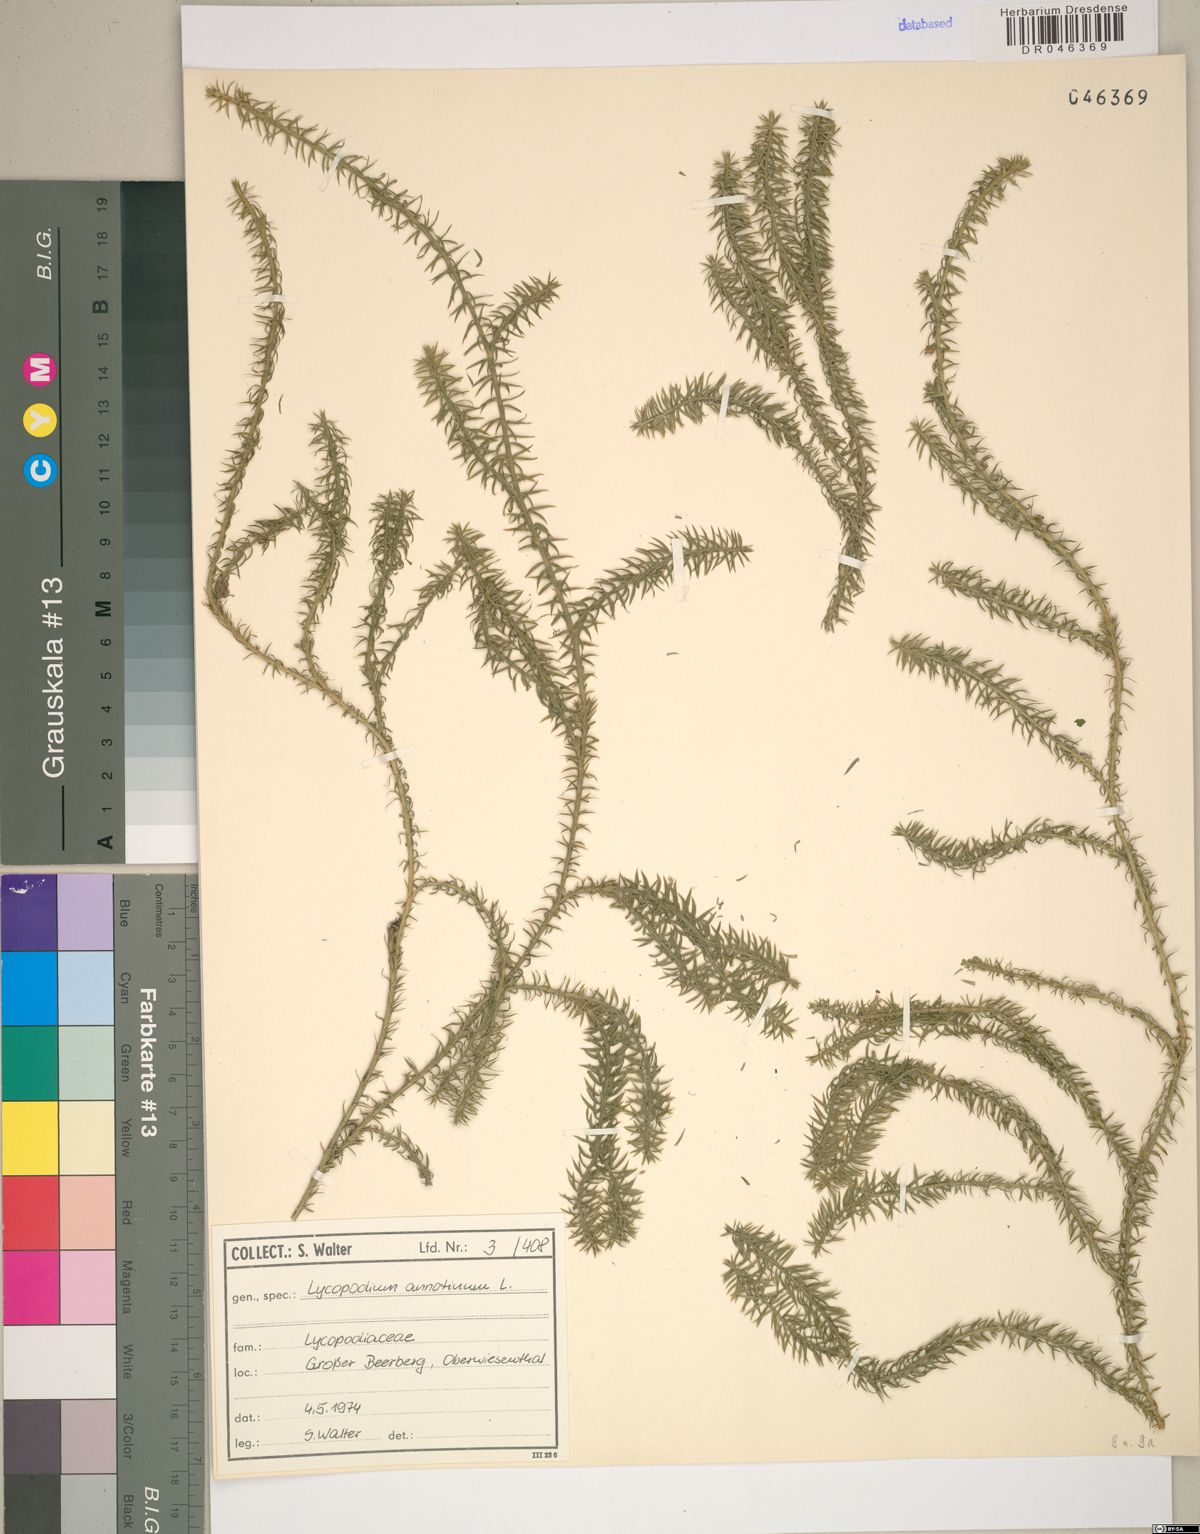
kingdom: Plantae
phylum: Tracheophyta
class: Lycopodiopsida
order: Lycopodiales
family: Lycopodiaceae
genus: Spinulum
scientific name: Spinulum annotinum
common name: Interrupted club-moss
